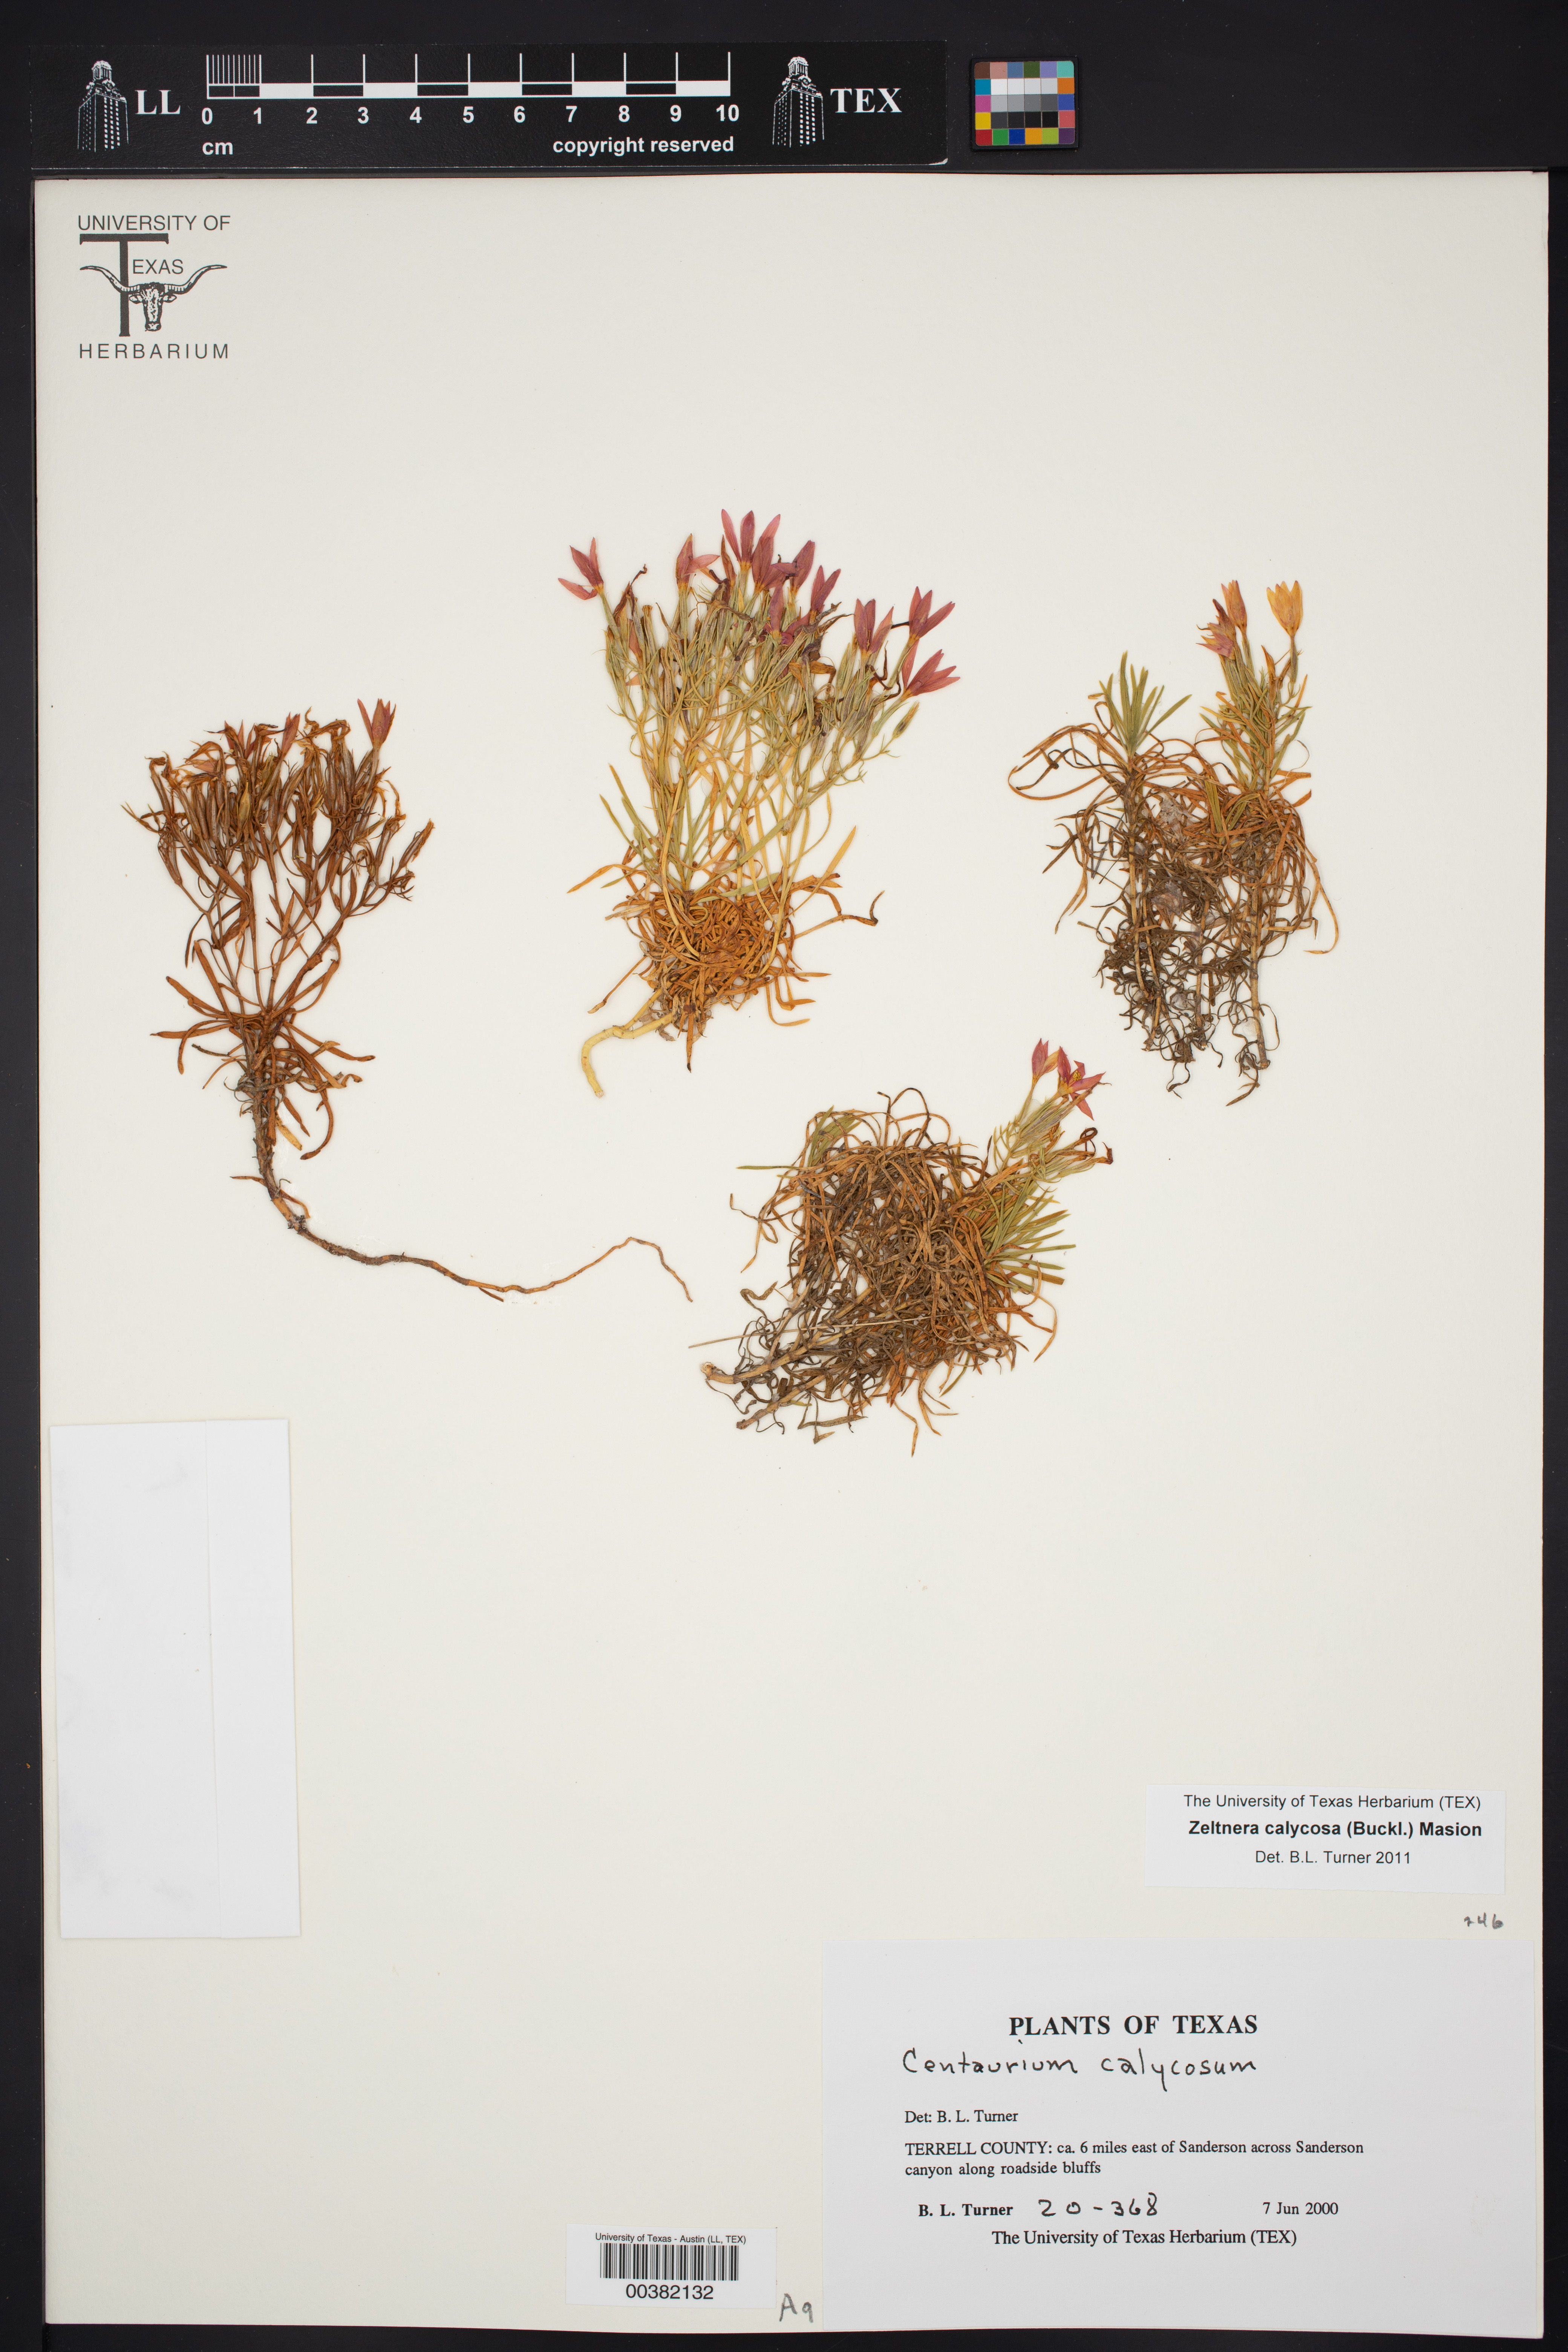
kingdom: Plantae
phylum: Tracheophyta
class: Magnoliopsida
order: Gentianales
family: Gentianaceae
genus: Zeltnera
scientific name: Zeltnera calycosa
